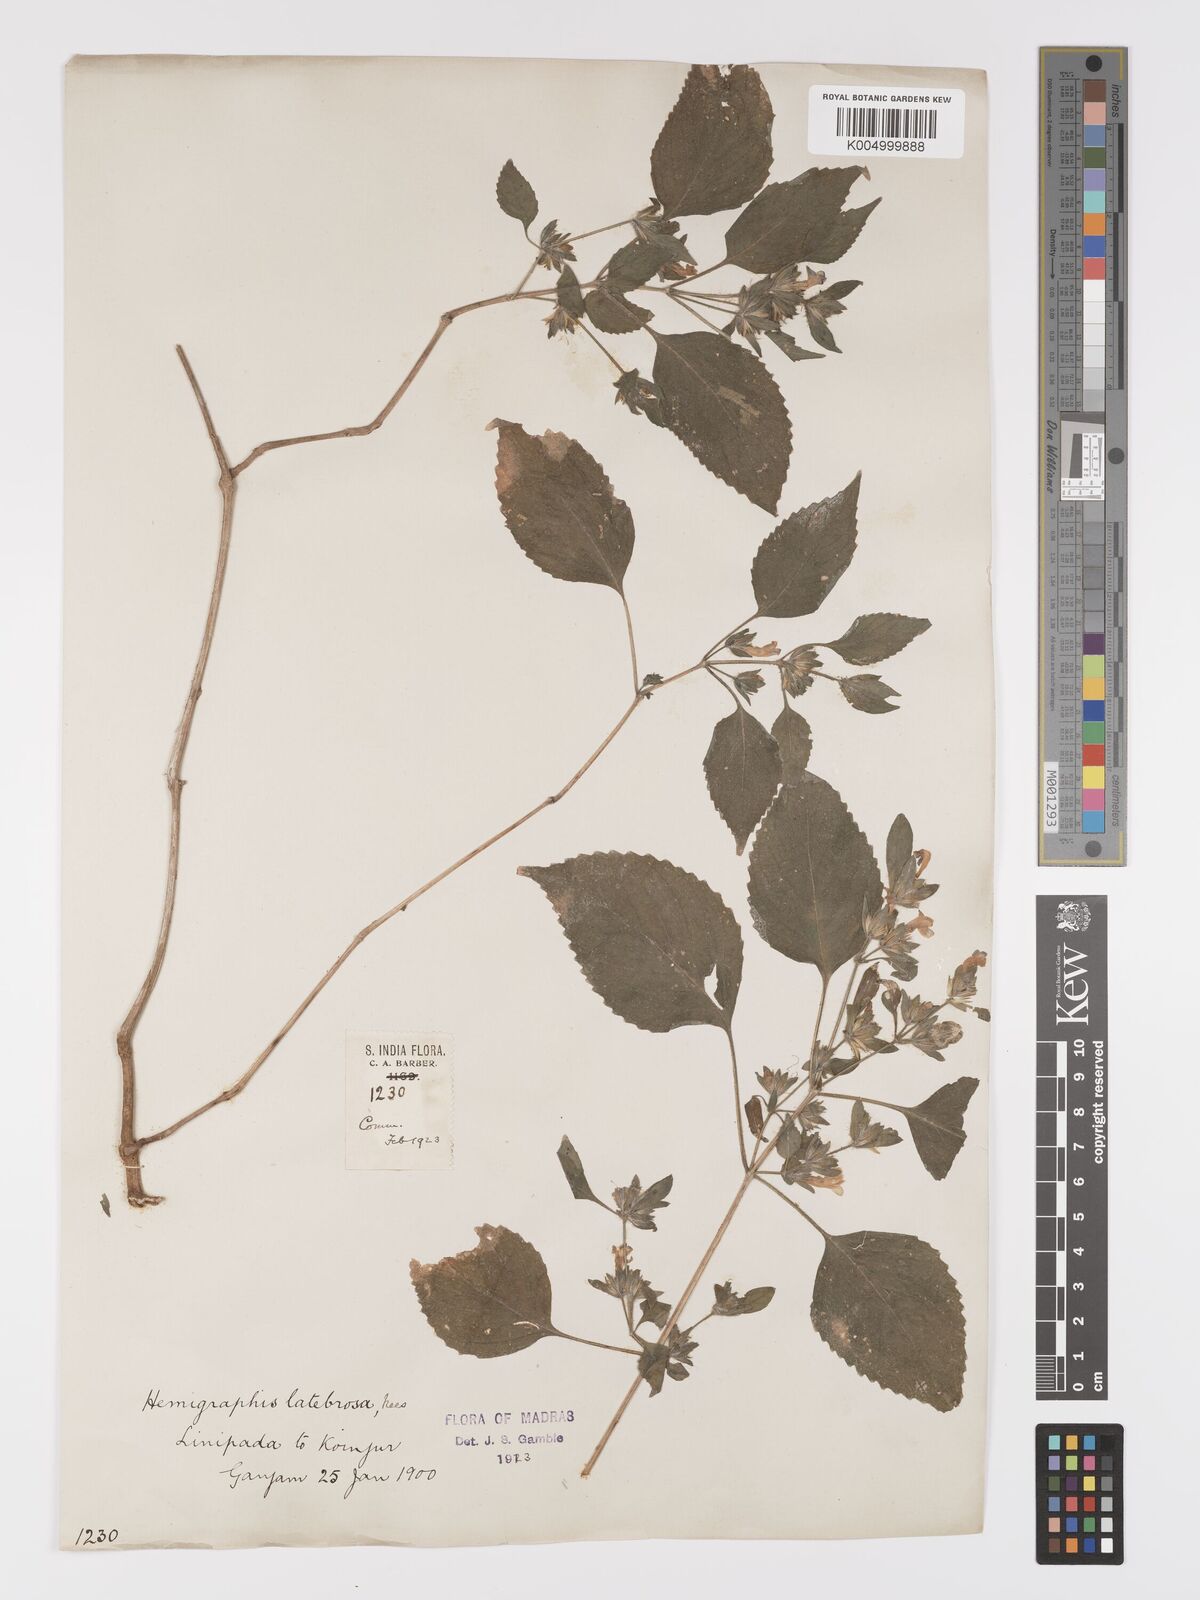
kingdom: Plantae
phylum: Tracheophyta
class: Magnoliopsida
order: Lamiales
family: Acanthaceae
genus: Strobilanthes
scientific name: Strobilanthes
